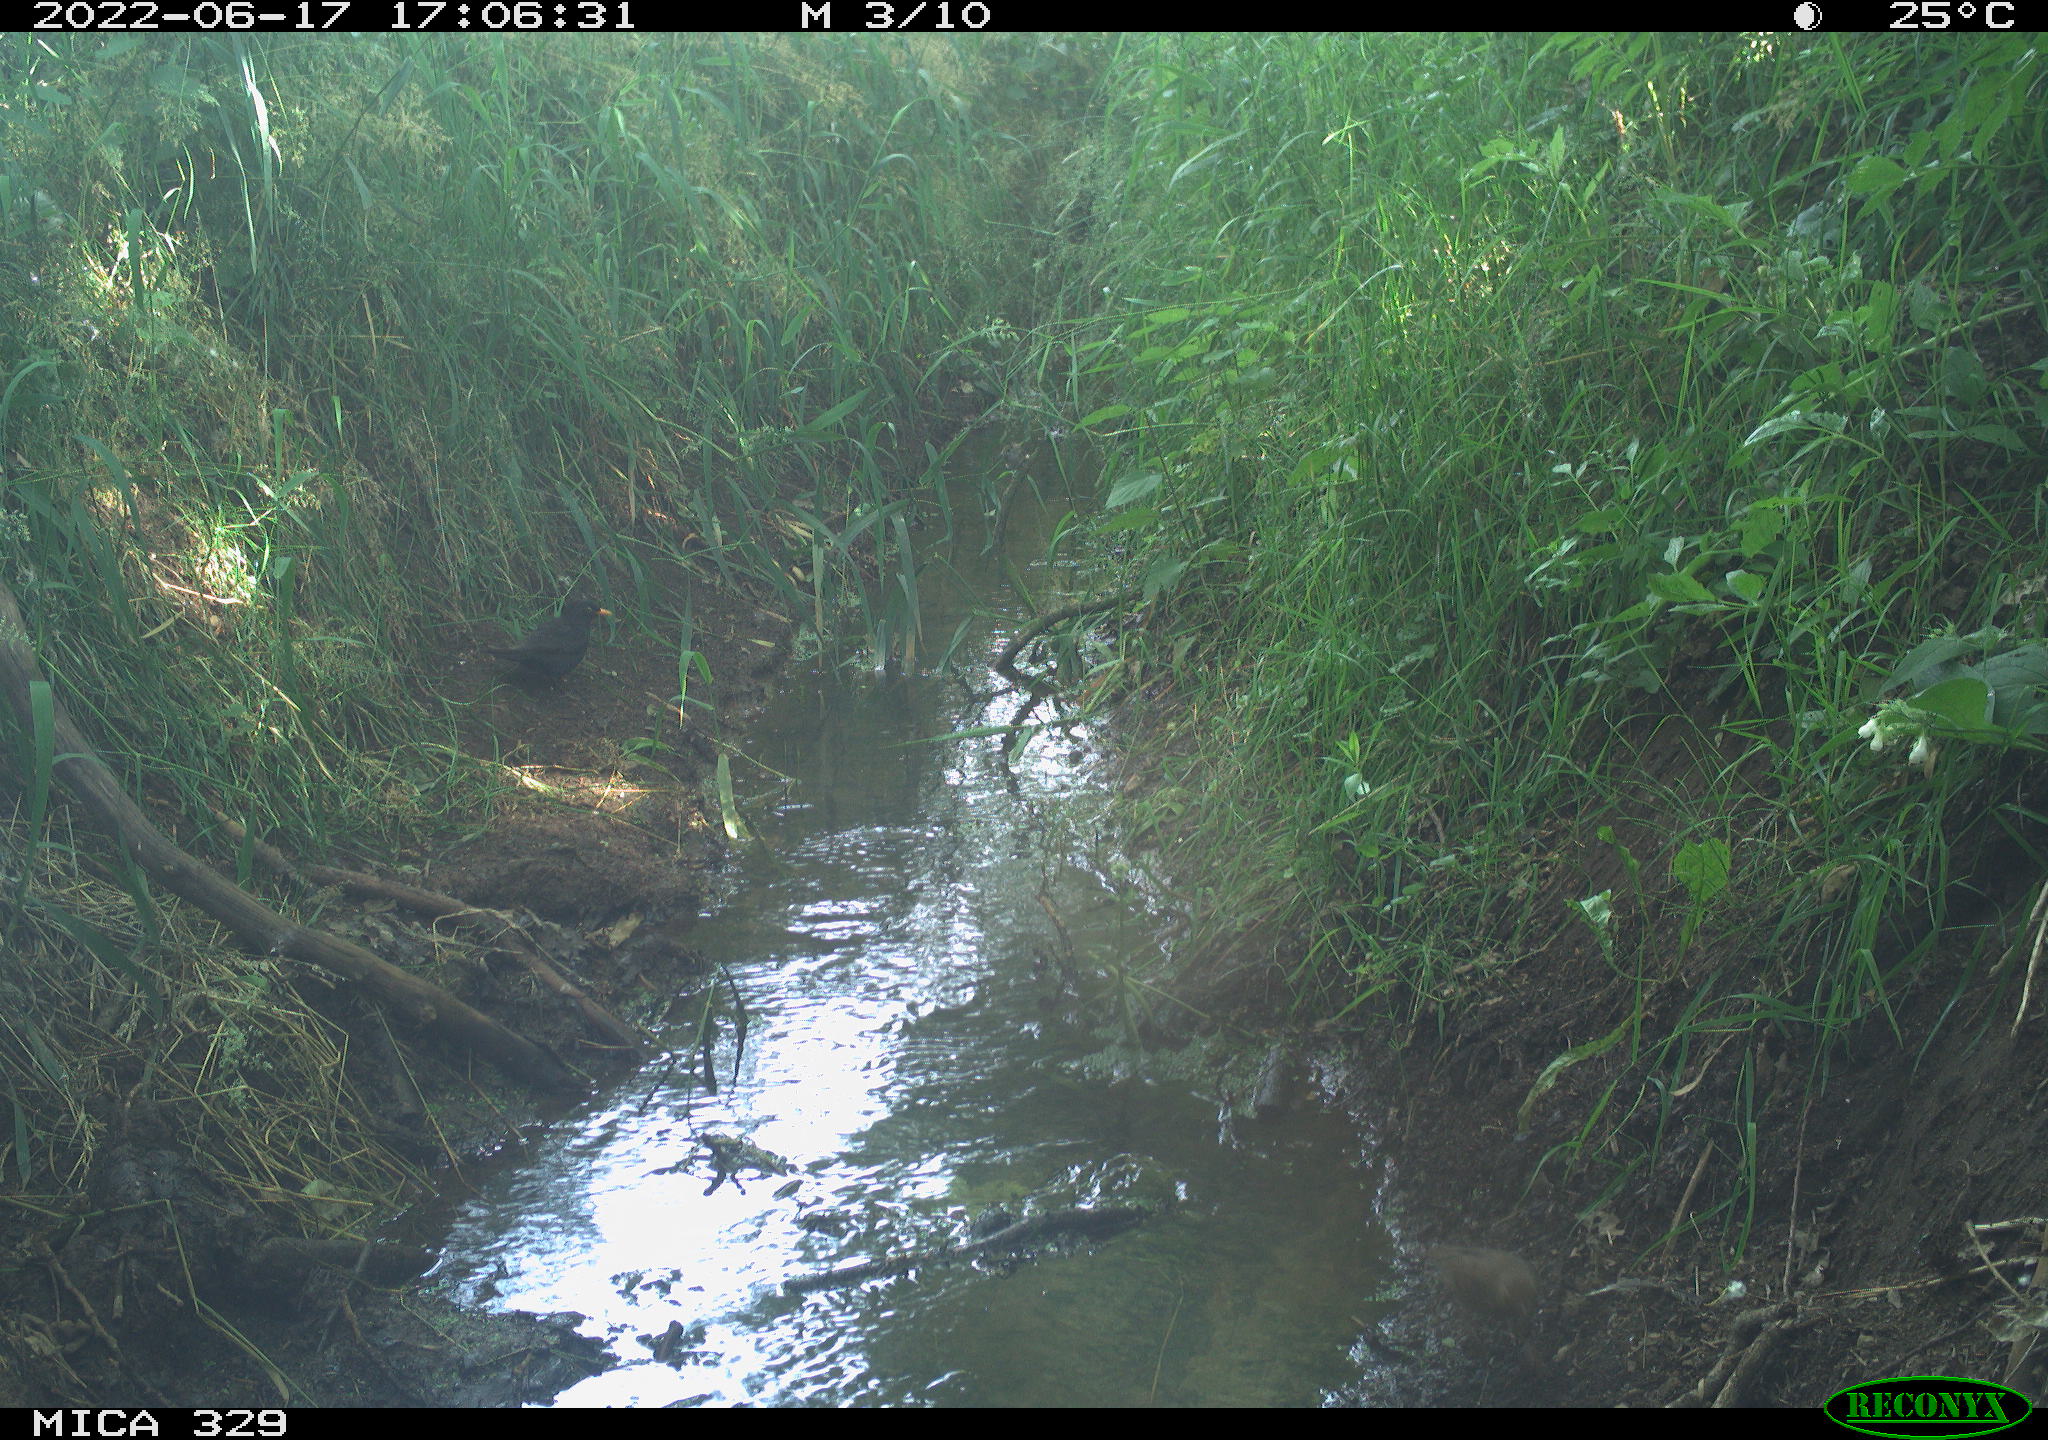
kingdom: Animalia
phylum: Chordata
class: Aves
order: Passeriformes
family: Turdidae
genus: Turdus
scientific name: Turdus merula
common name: Common blackbird
